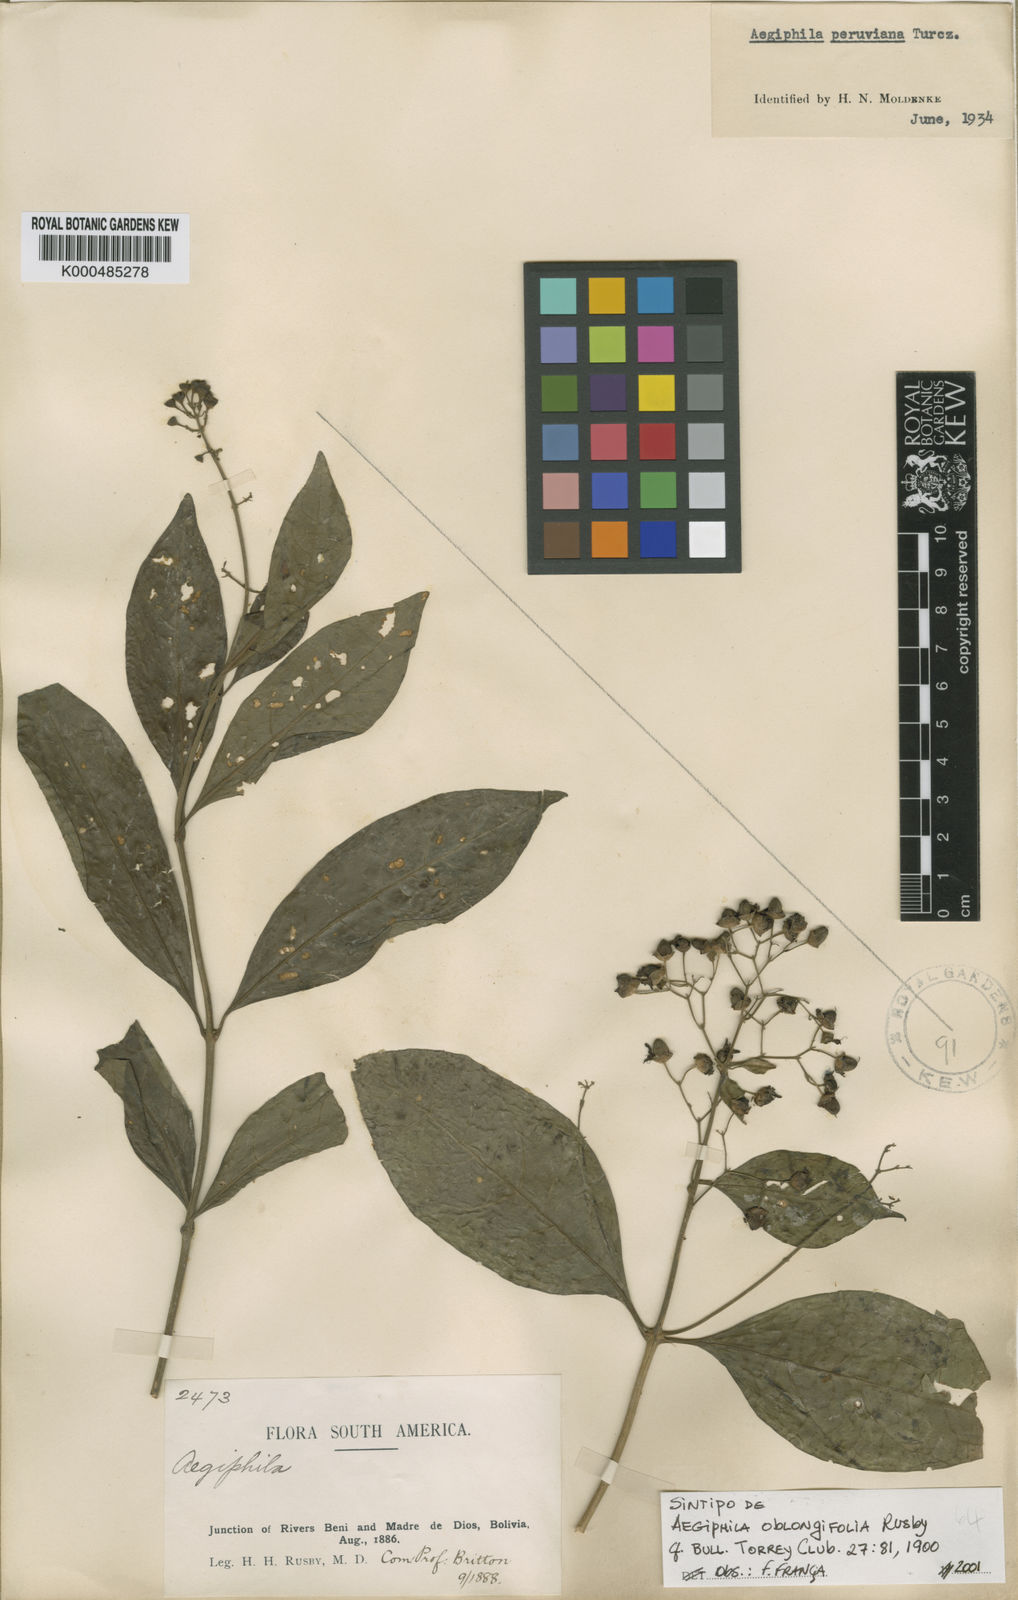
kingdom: Plantae
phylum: Tracheophyta
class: Magnoliopsida
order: Lamiales
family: Lamiaceae
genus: Aegiphila
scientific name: Aegiphila peruviana
